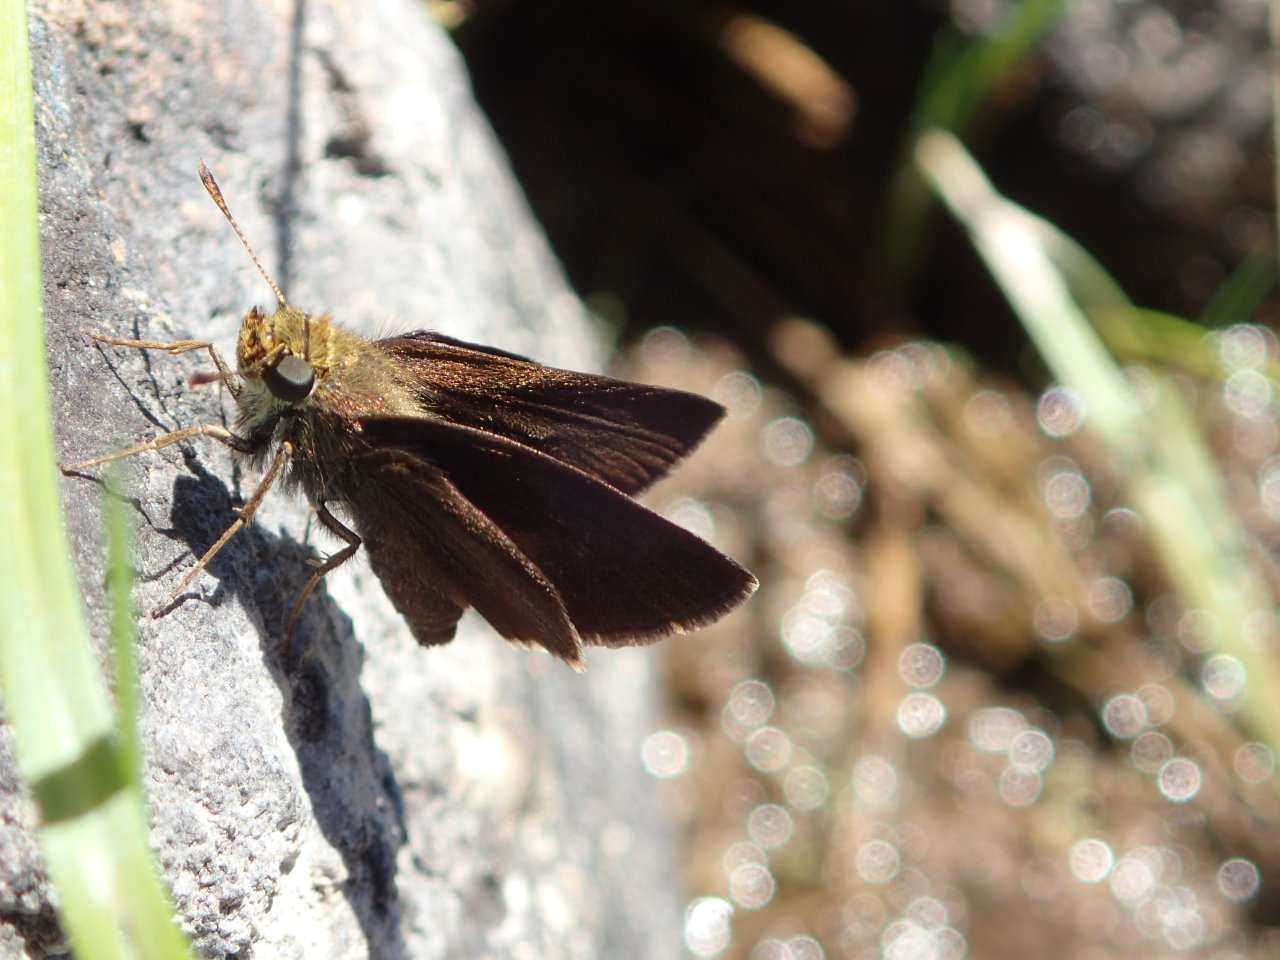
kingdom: Animalia
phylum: Arthropoda
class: Insecta
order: Lepidoptera
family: Hesperiidae
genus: Euphyes
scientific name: Euphyes vestris
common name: Dun Skipper
